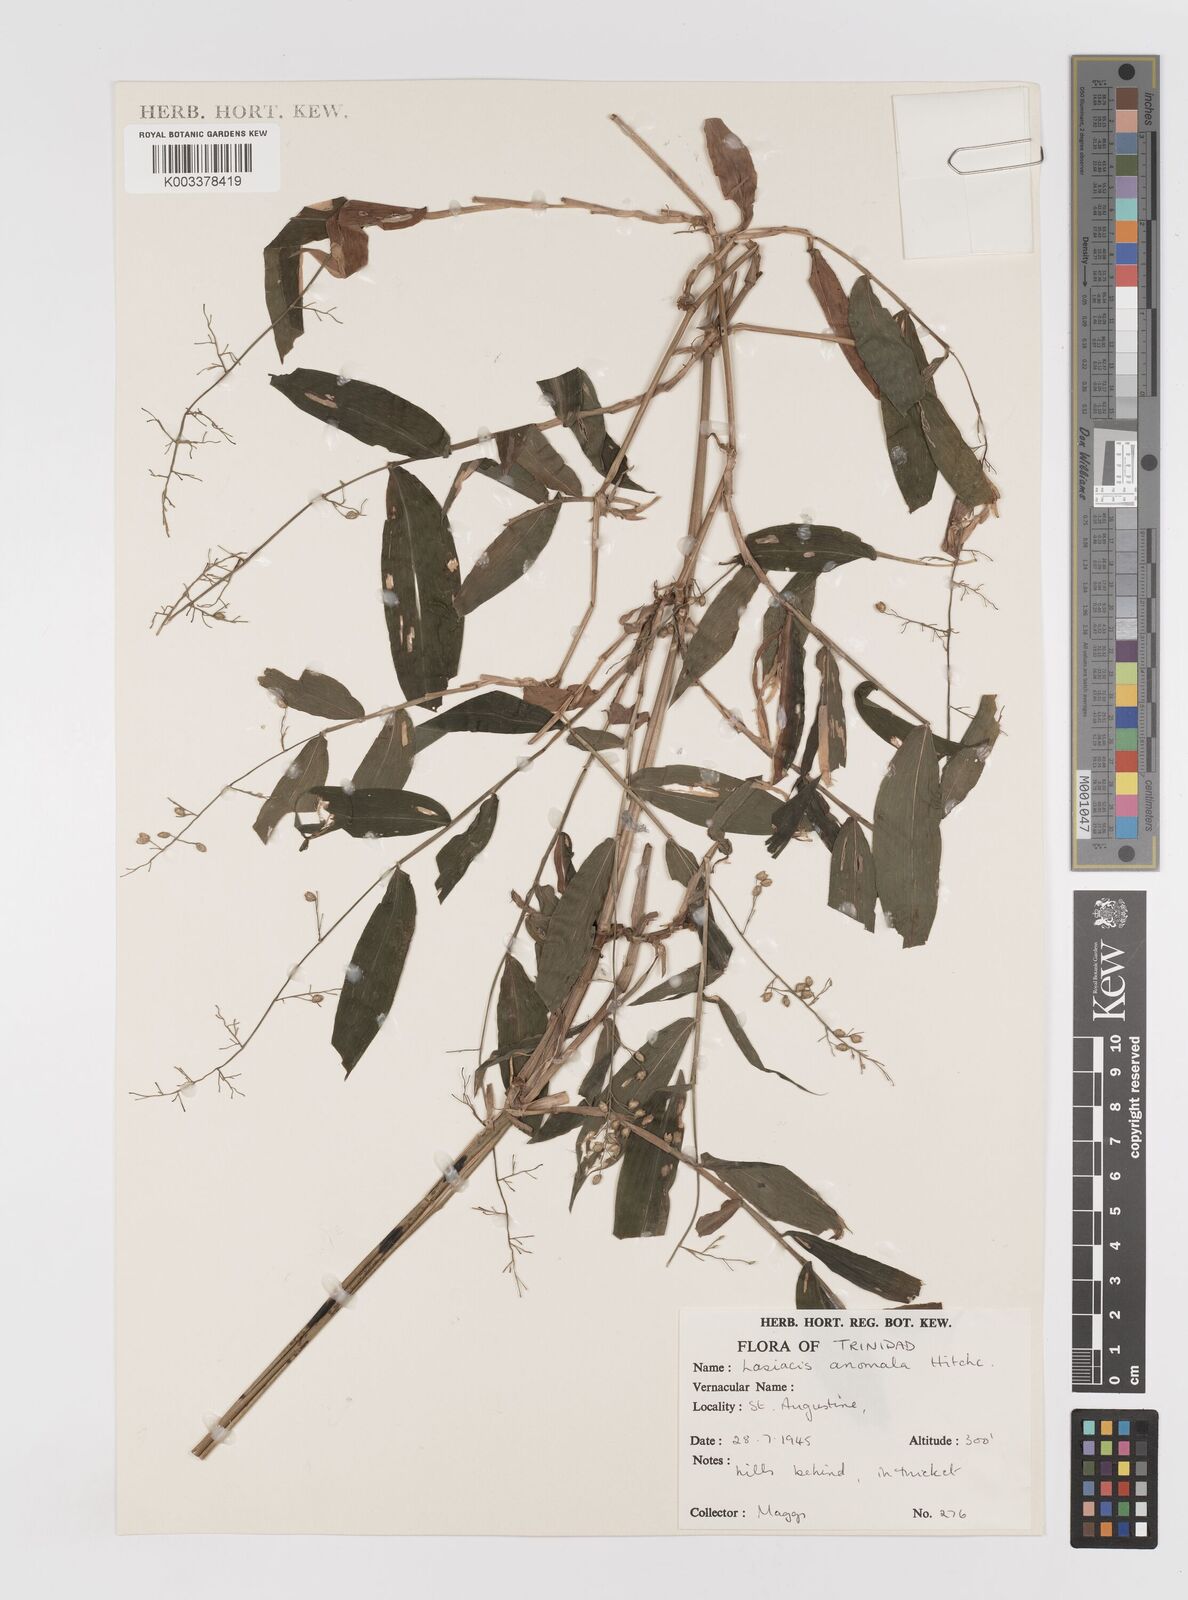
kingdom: Plantae
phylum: Tracheophyta
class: Liliopsida
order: Poales
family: Poaceae
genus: Lasiacis
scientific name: Lasiacis anomala
